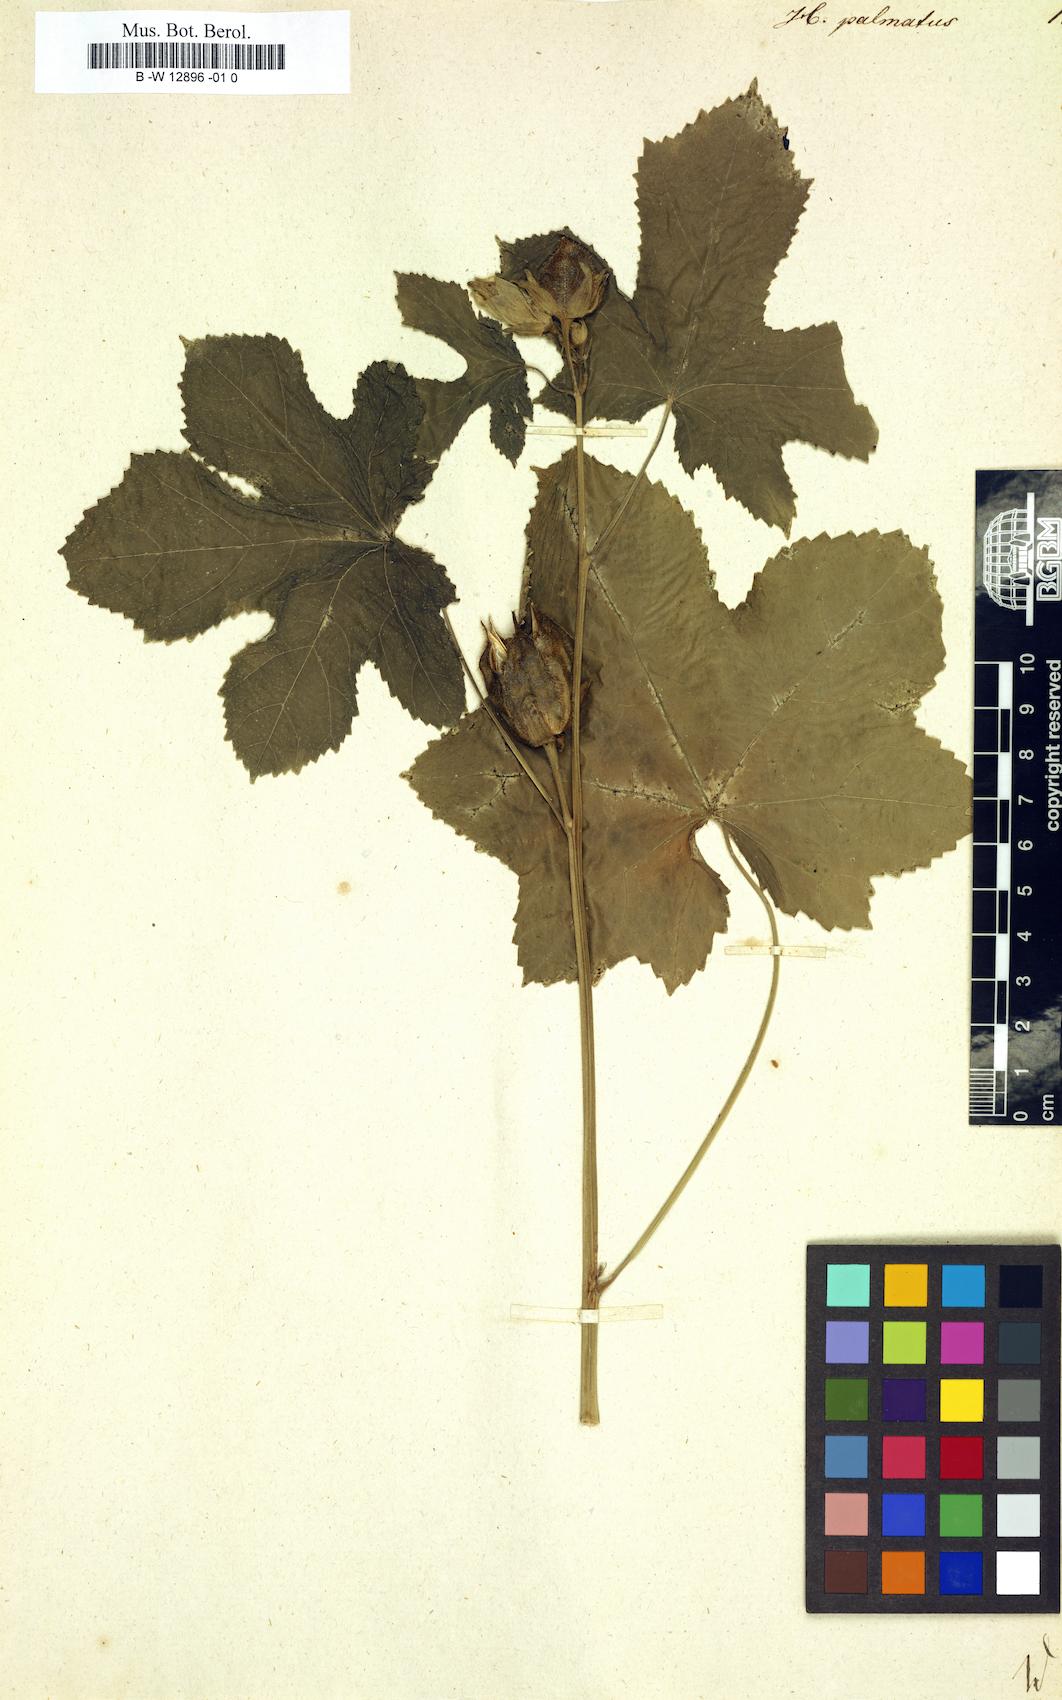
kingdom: Plantae
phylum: Tracheophyta
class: Magnoliopsida
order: Malvales
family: Malvaceae
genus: Hibiscus
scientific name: Hibiscus palmatus
